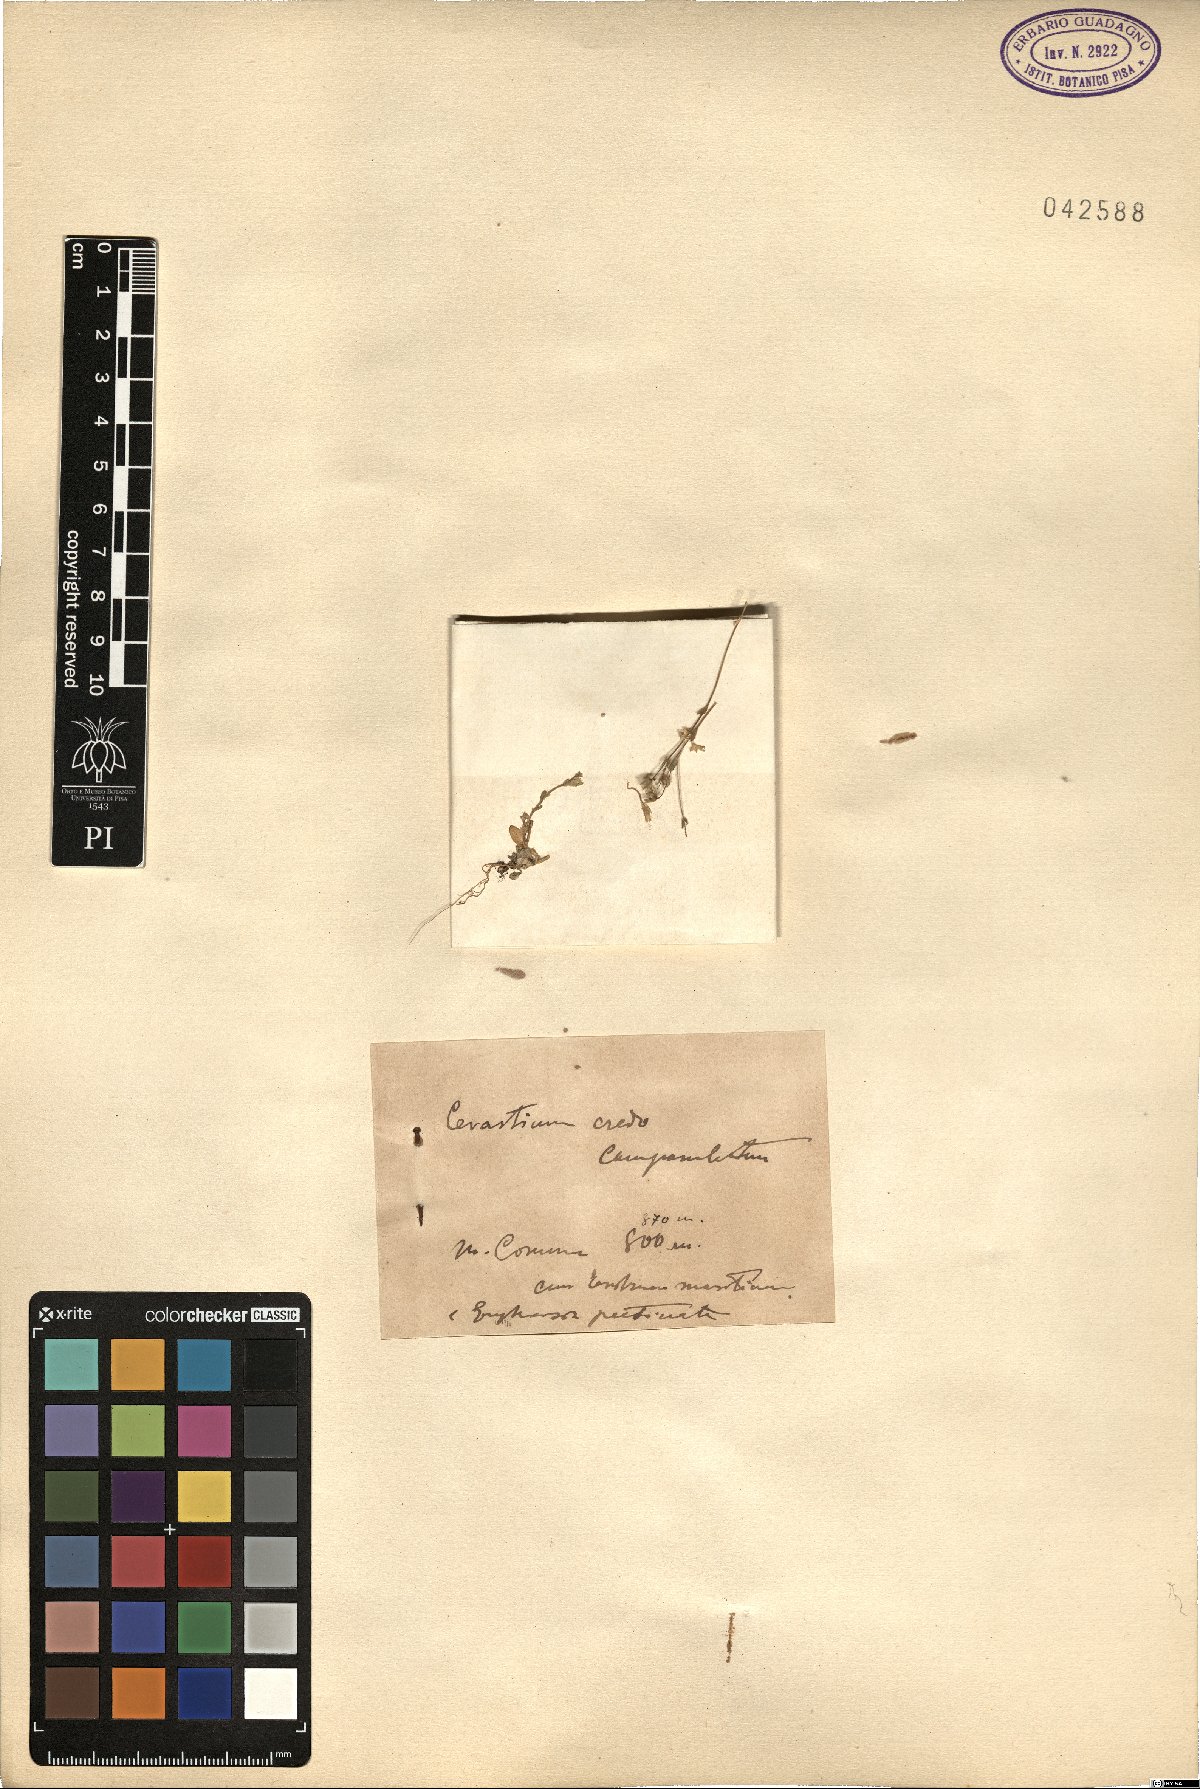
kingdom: Plantae
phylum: Tracheophyta
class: Magnoliopsida
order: Caryophyllales
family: Caryophyllaceae
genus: Cerastium
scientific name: Cerastium ligusticum
